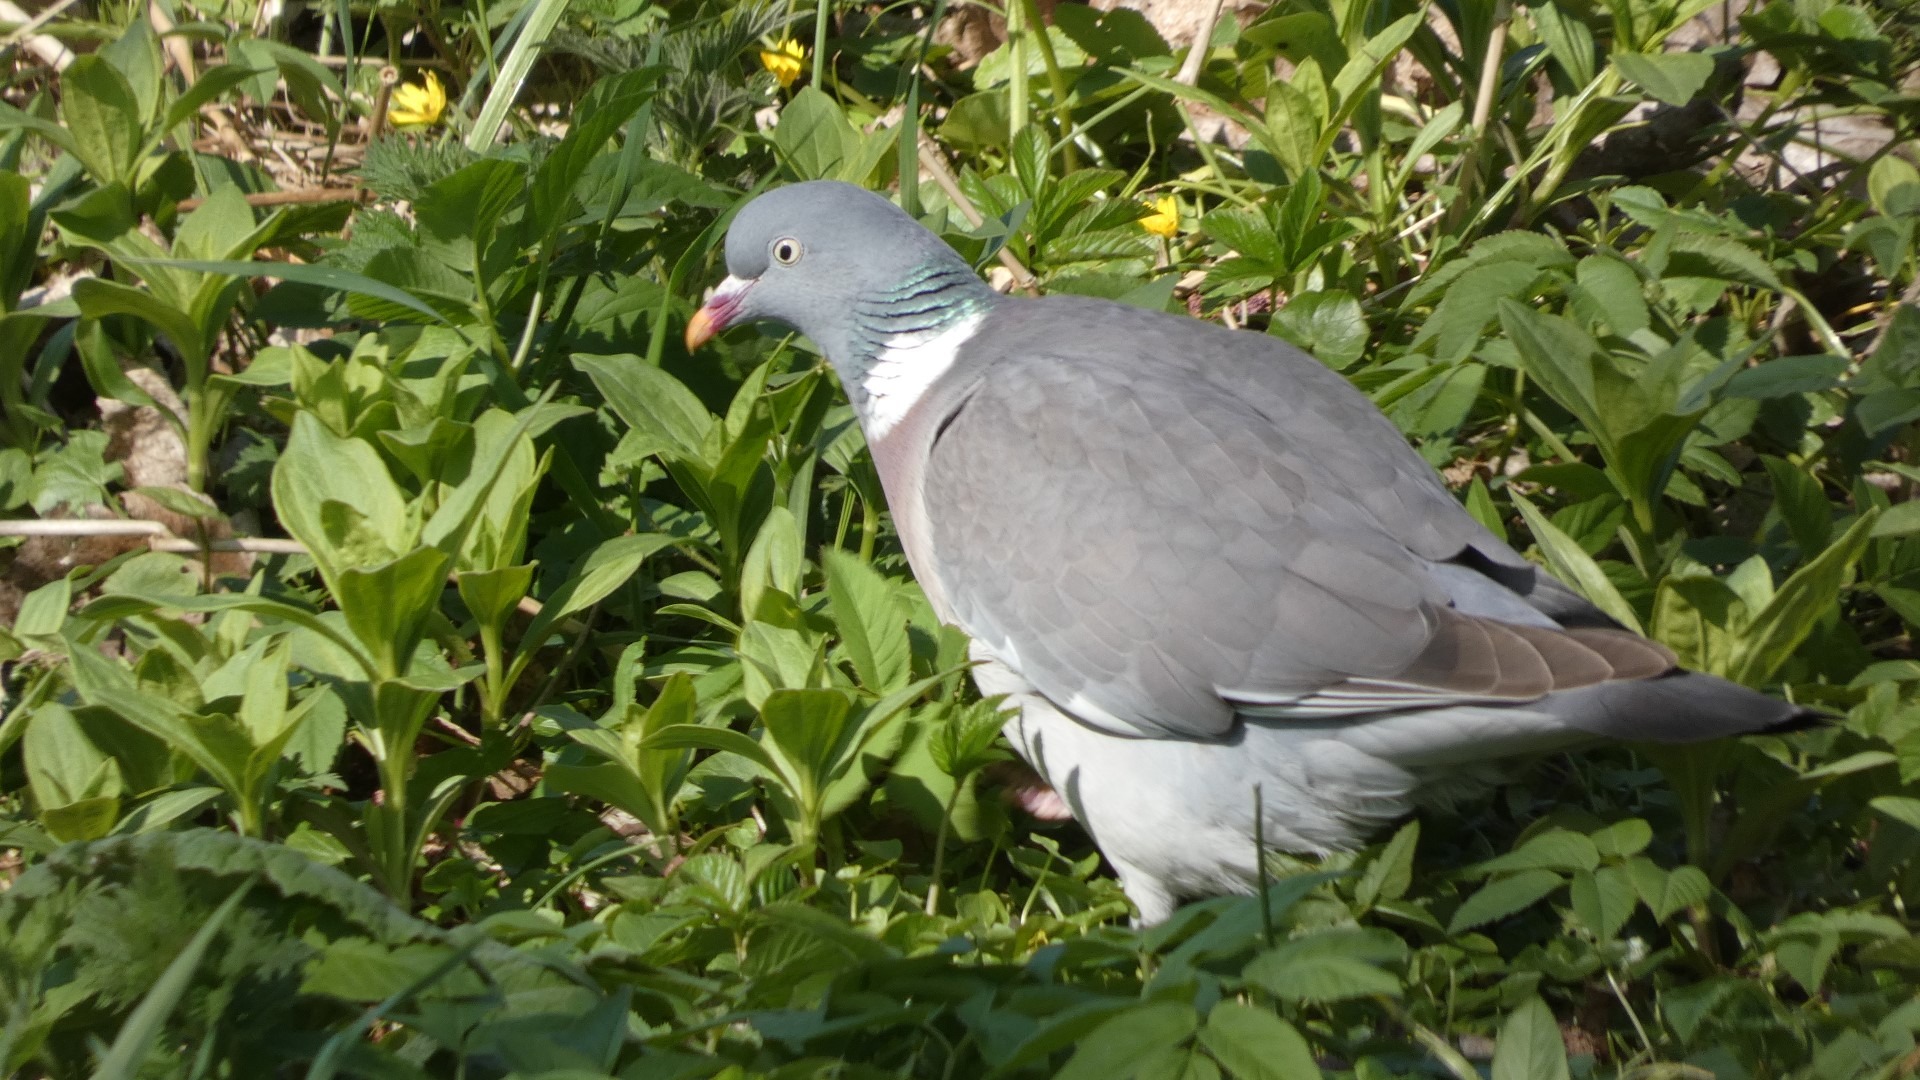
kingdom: Animalia
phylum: Chordata
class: Aves
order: Columbiformes
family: Columbidae
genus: Columba
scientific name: Columba palumbus
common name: Ringdue
